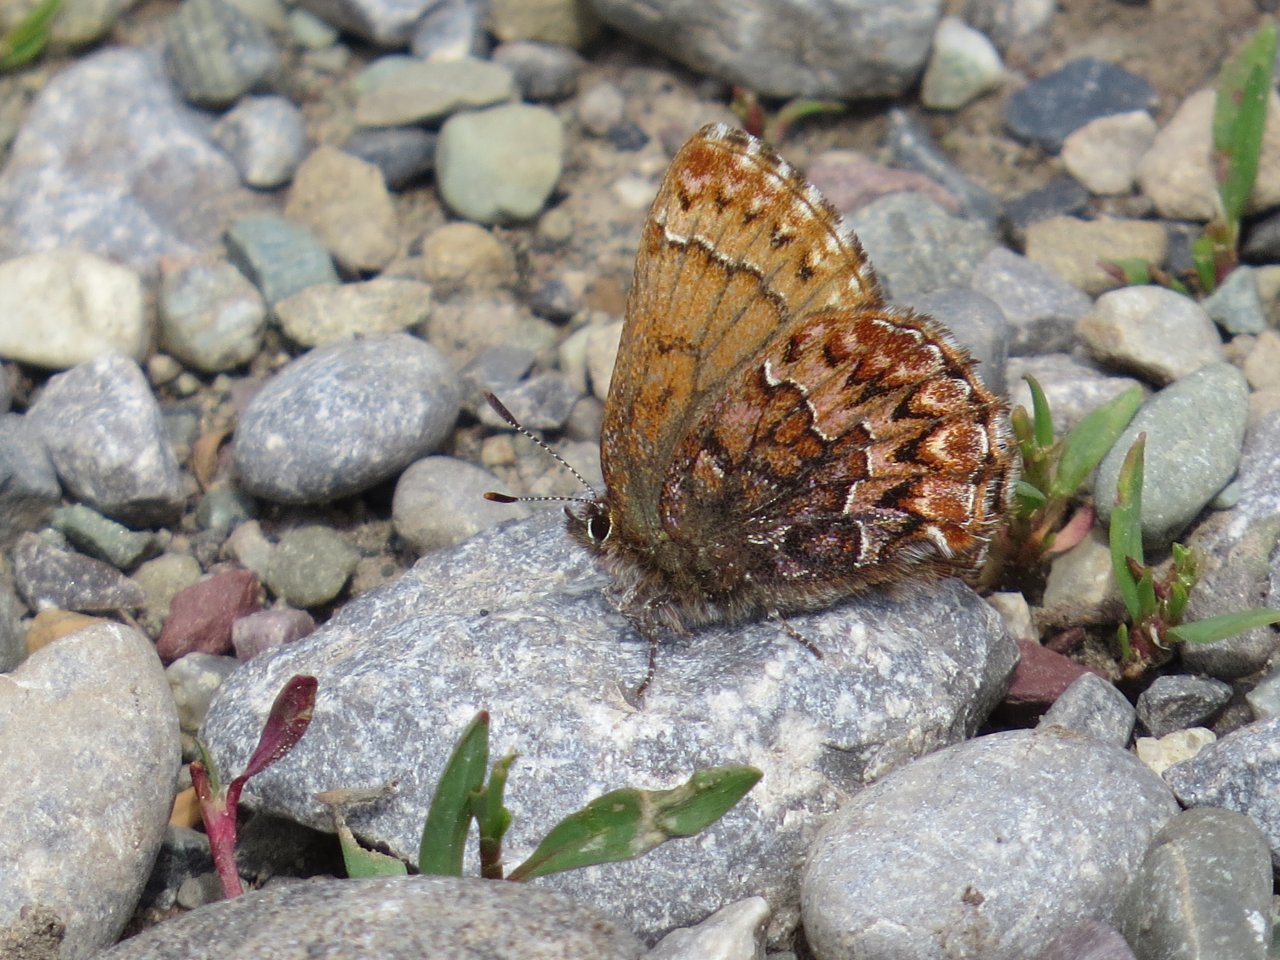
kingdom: Animalia
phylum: Arthropoda
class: Insecta
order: Lepidoptera
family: Lycaenidae
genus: Incisalia
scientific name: Incisalia eryphon
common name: Western Pine Elfin
